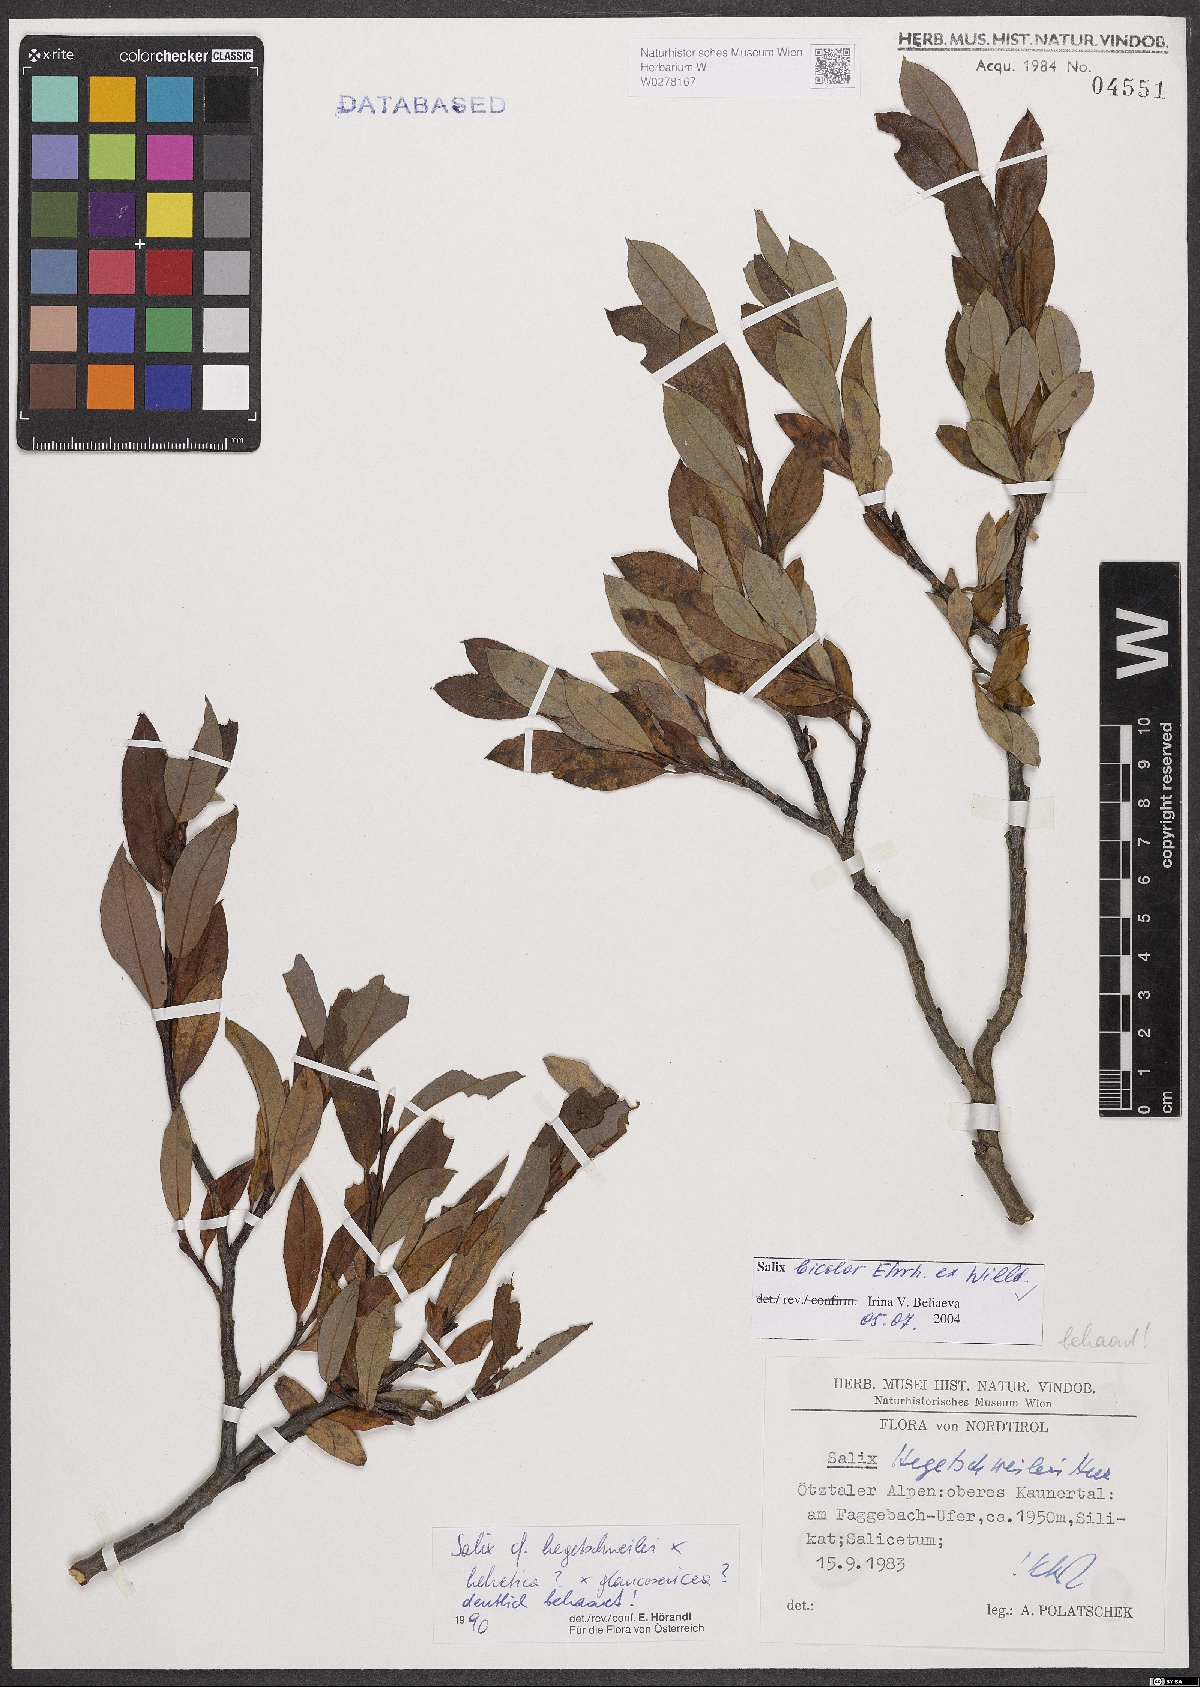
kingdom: Plantae
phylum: Tracheophyta
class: Magnoliopsida
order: Malpighiales
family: Salicaceae
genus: Salix
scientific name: Salix bicolor
